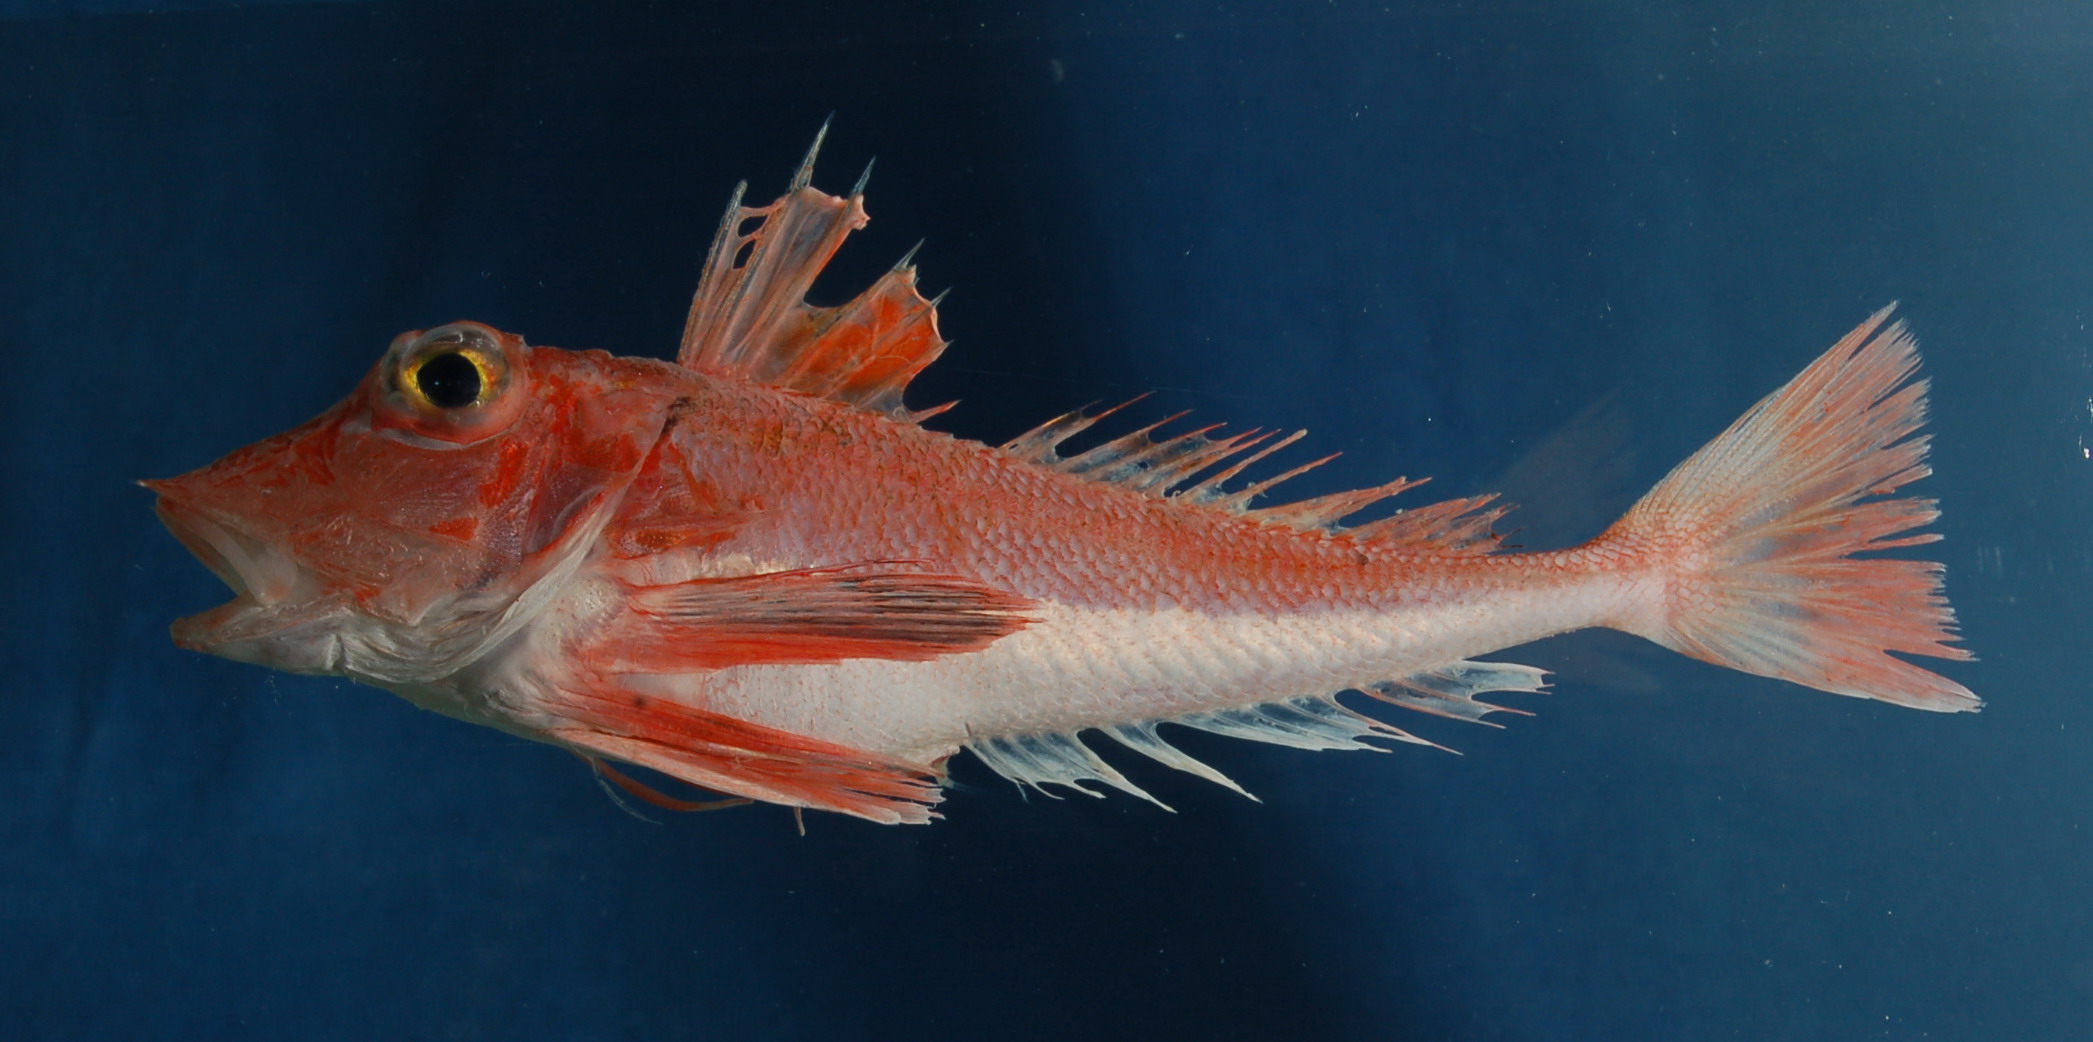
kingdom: Animalia
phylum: Chordata
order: Scorpaeniformes
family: Triglidae
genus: Lepidotrigla
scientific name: Lepidotrigla multispinosa
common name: Spiny gurnard
